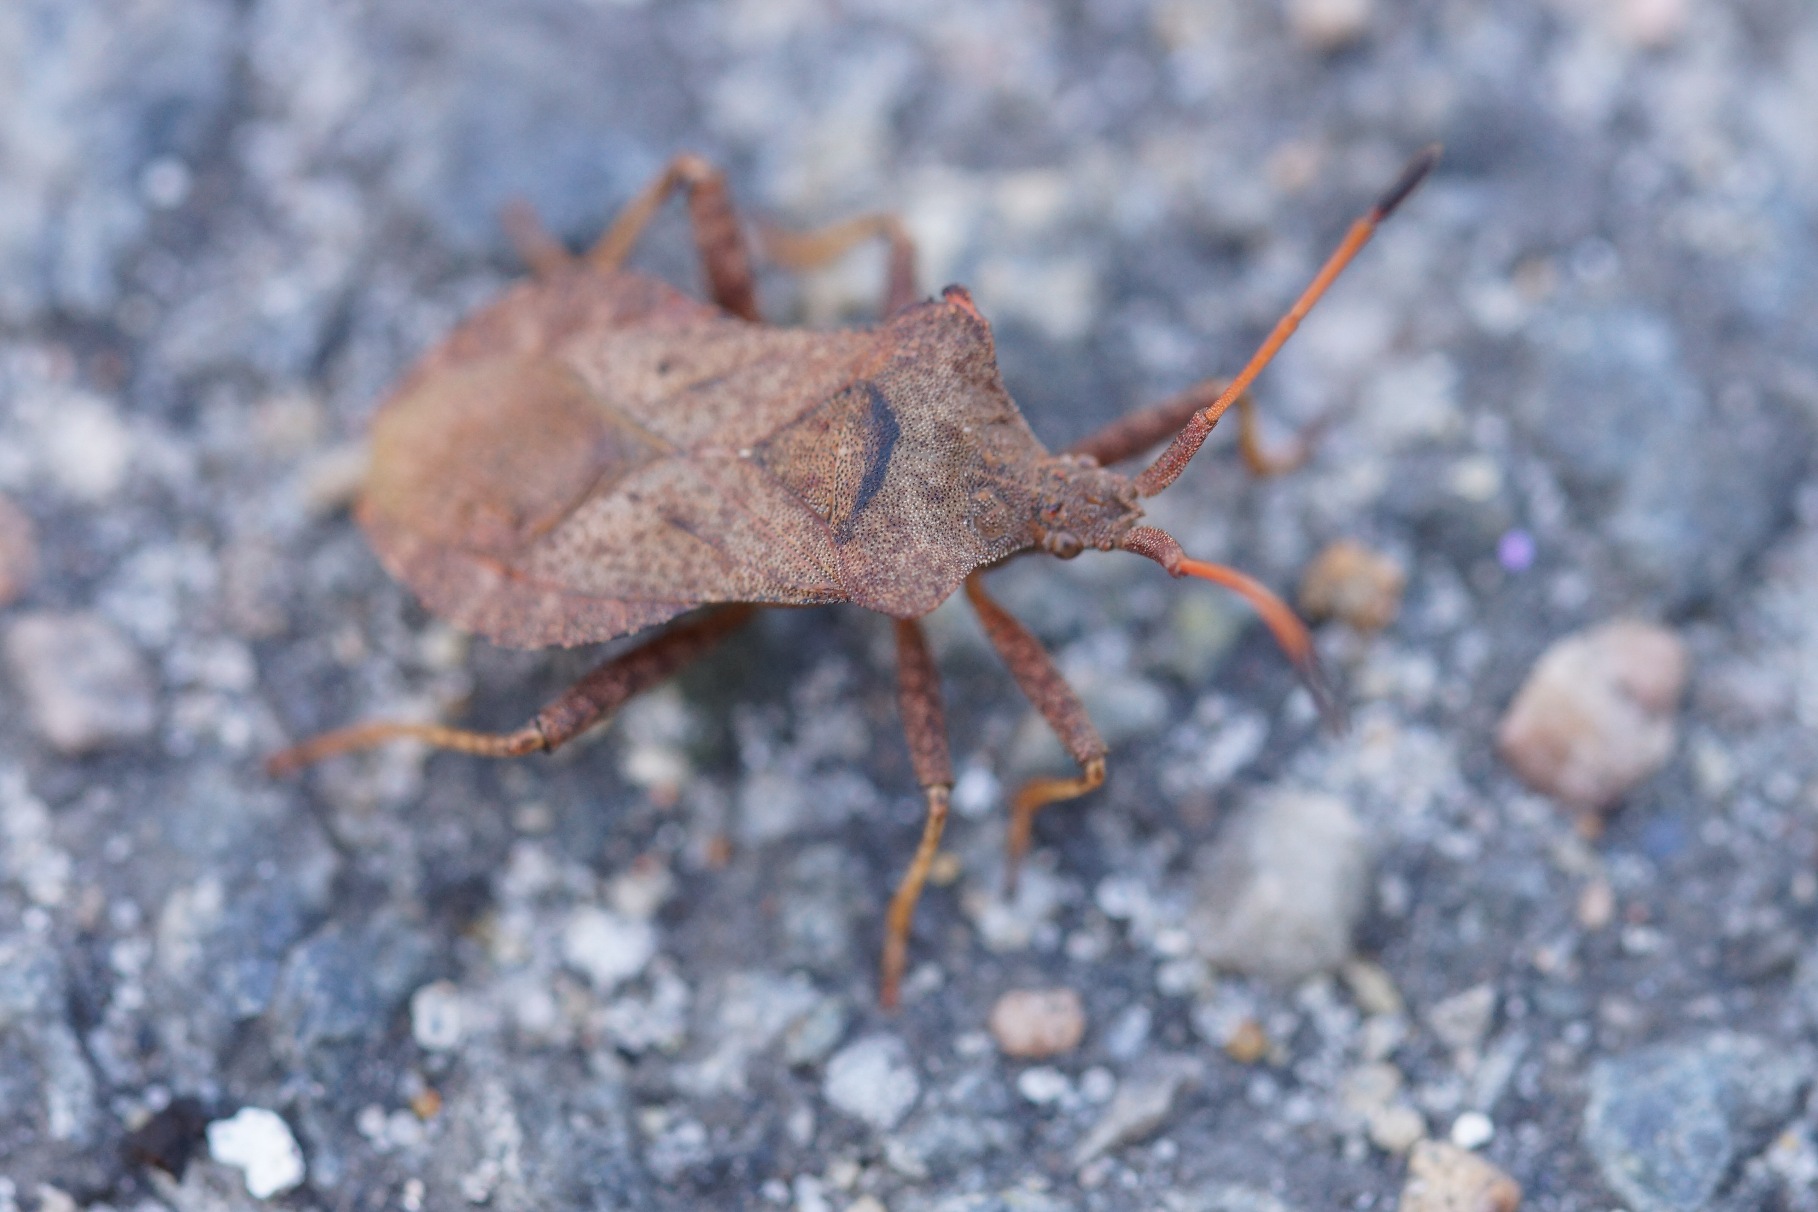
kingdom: Animalia
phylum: Arthropoda
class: Insecta
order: Hemiptera
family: Coreidae
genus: Coreus
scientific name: Coreus marginatus
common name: Skræppetæge
